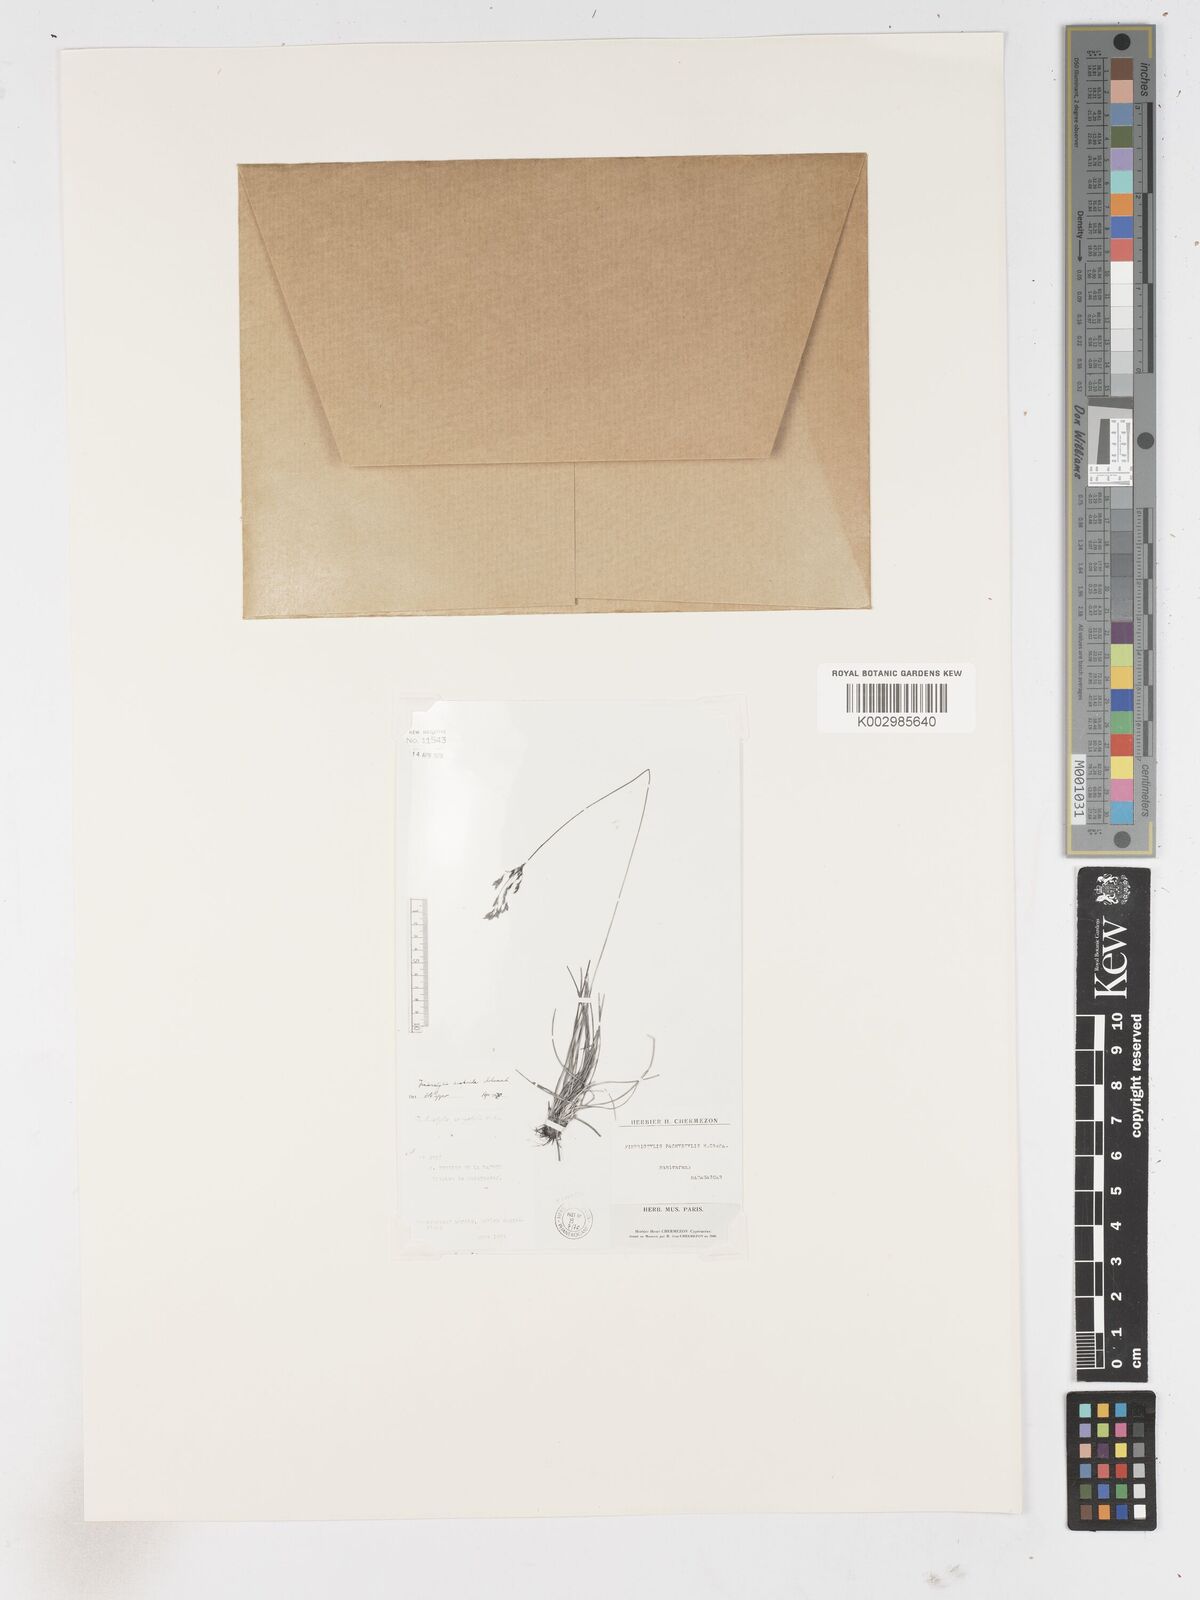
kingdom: Plantae
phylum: Tracheophyta
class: Liliopsida
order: Poales
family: Cyperaceae
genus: Fimbristylis
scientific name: Fimbristylis scabrida
